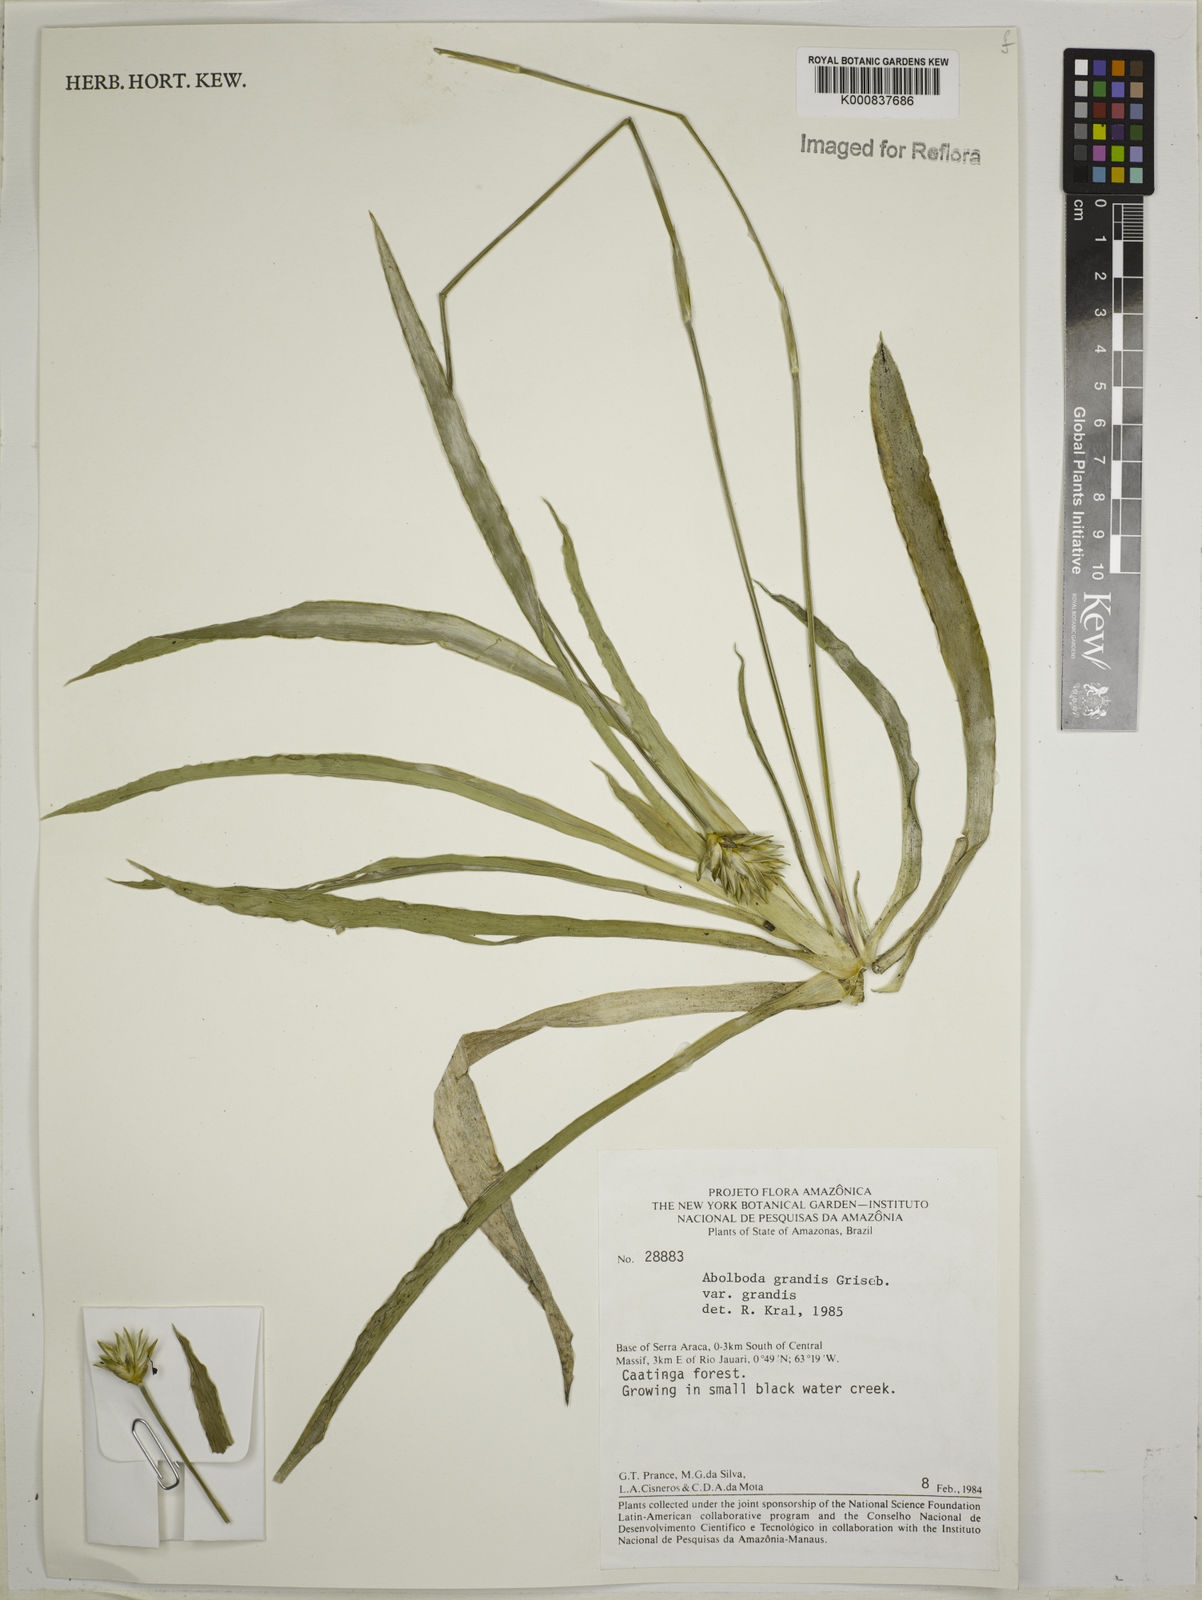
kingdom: Plantae
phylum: Tracheophyta
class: Liliopsida
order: Poales
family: Xyridaceae
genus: Abolboda
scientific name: Abolboda grandis
